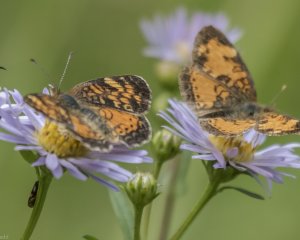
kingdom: Animalia
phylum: Arthropoda
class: Insecta
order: Lepidoptera
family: Nymphalidae
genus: Phyciodes
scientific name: Phyciodes tharos
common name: Northern Crescent
